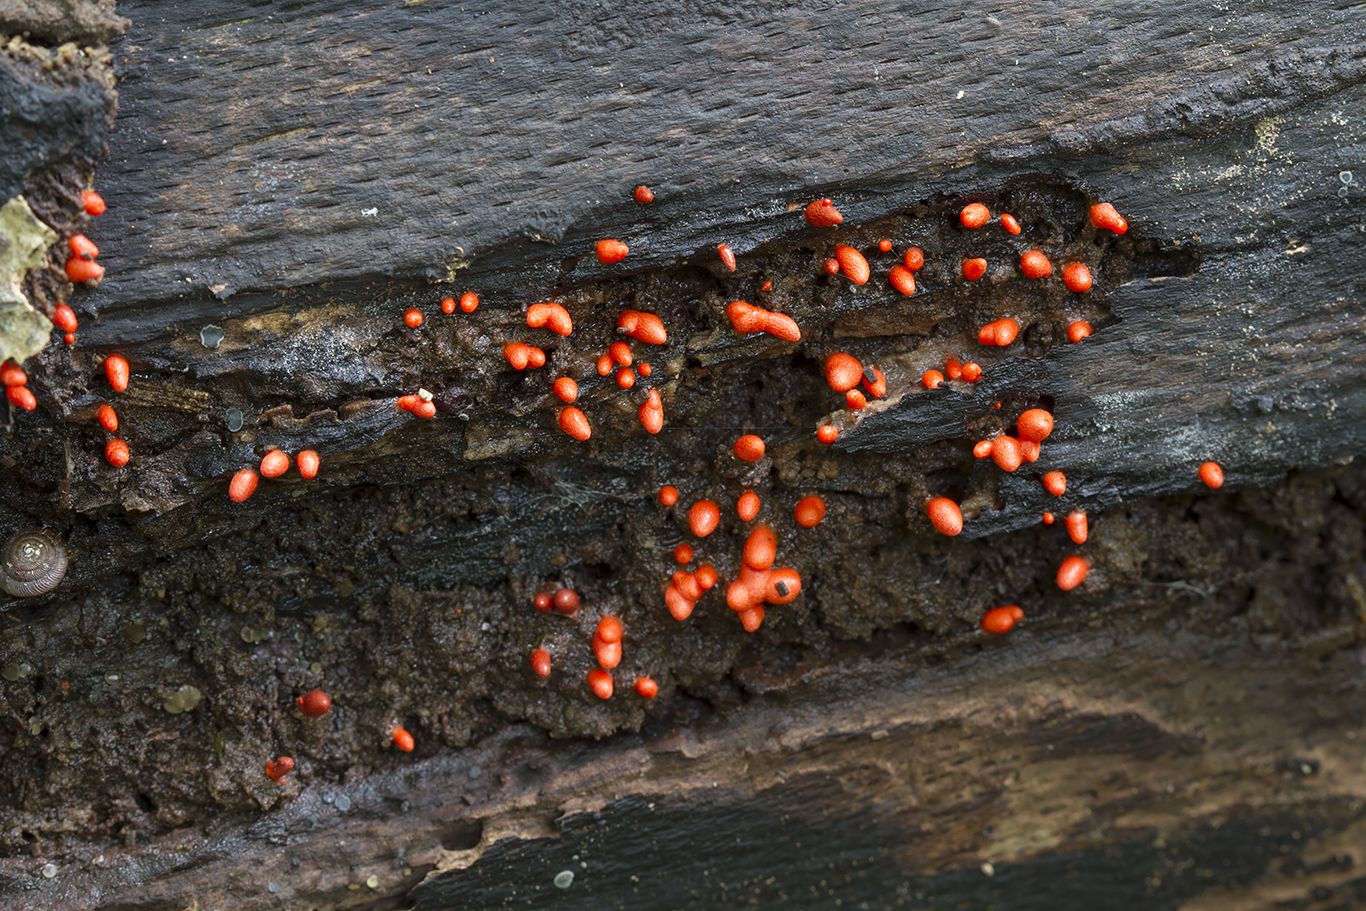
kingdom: Protozoa
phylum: Mycetozoa
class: Myxomycetes
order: Cribrariales
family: Tubiferaceae
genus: Lycogala
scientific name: Lycogala conicum
